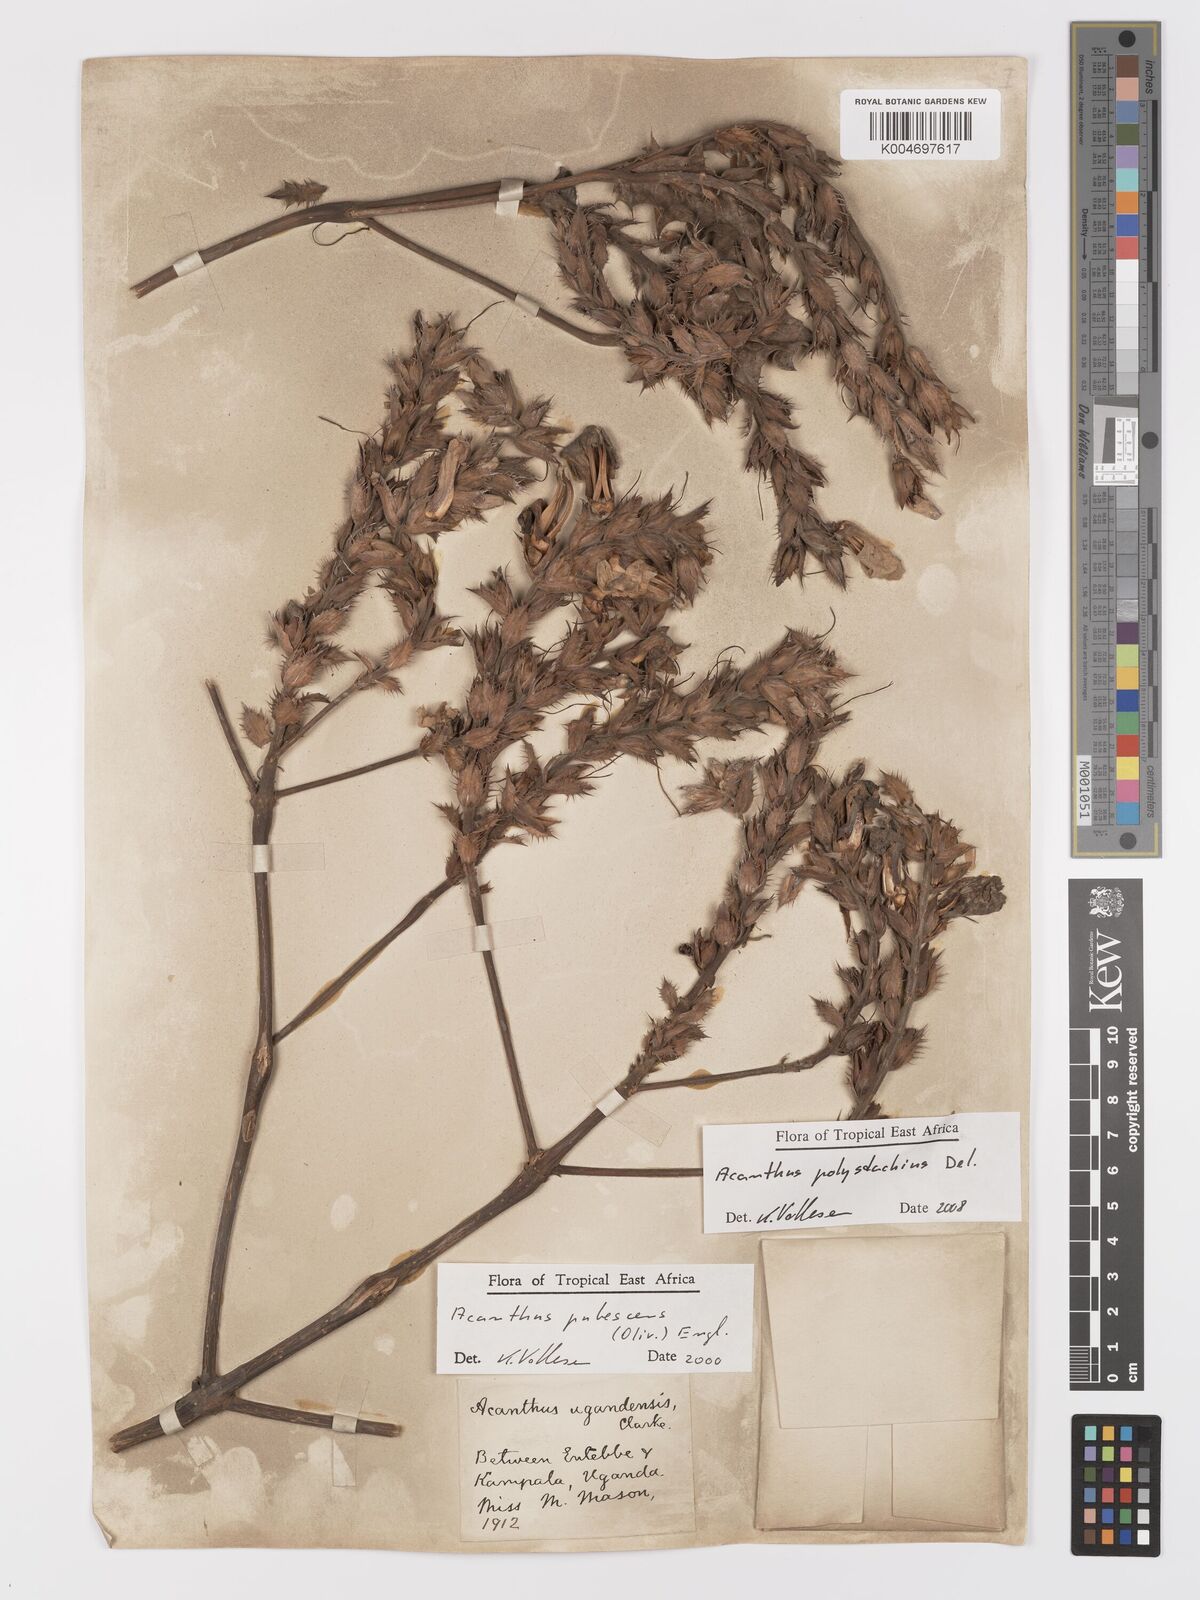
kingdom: Plantae
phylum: Tracheophyta
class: Magnoliopsida
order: Lamiales
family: Acanthaceae
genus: Acanthus
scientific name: Acanthus polystachyus
